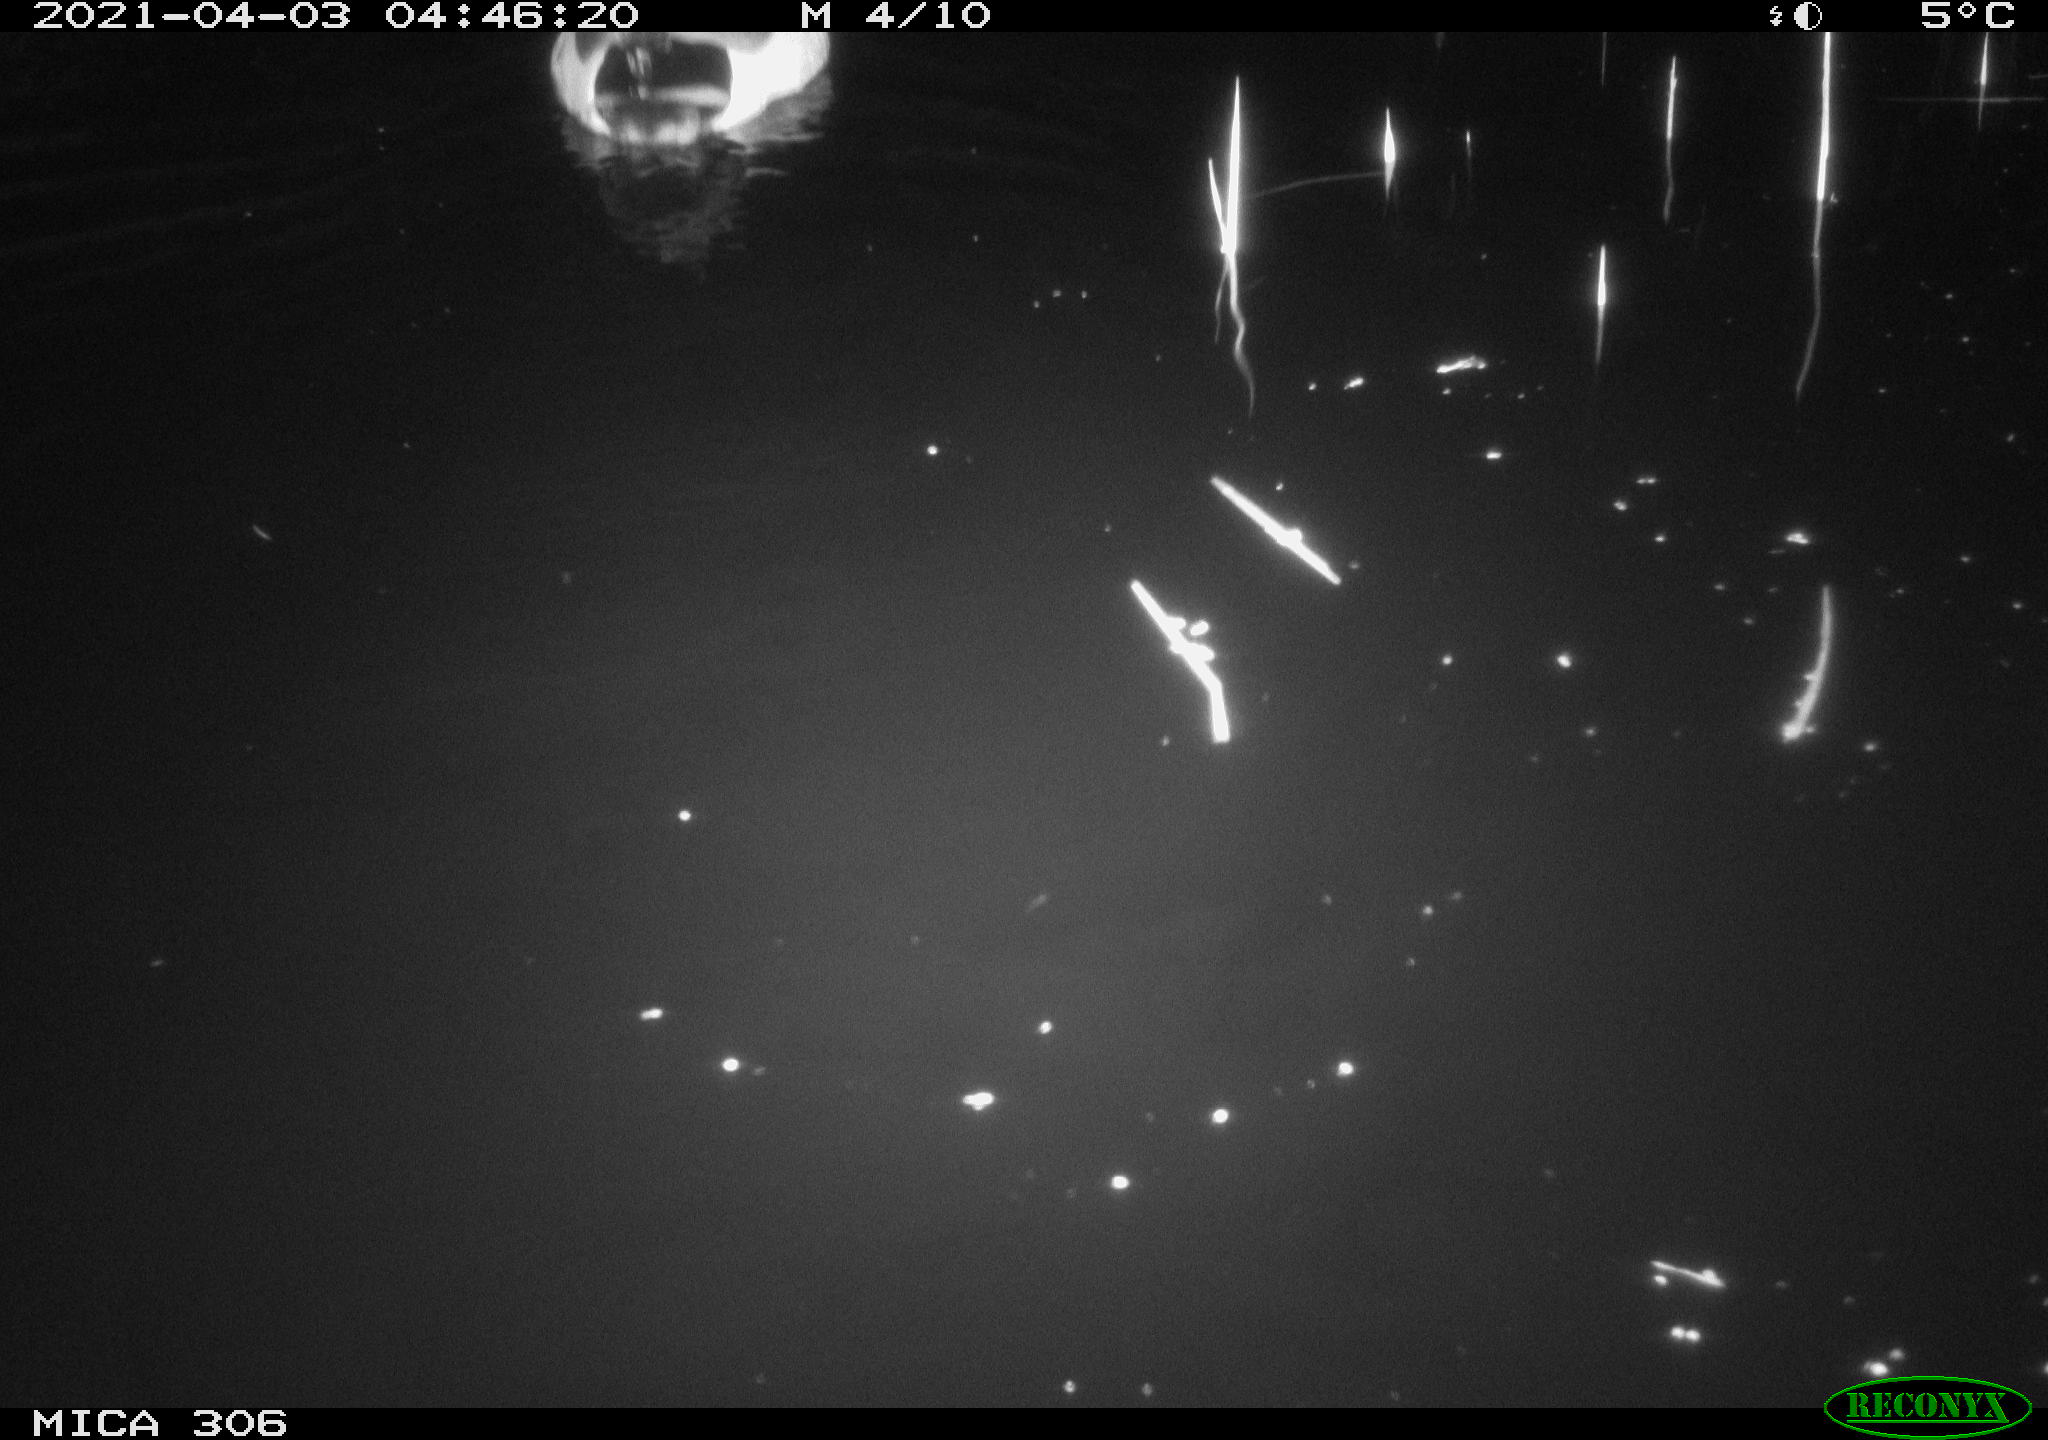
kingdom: Animalia
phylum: Chordata
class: Aves
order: Anseriformes
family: Anatidae
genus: Anas
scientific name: Anas
